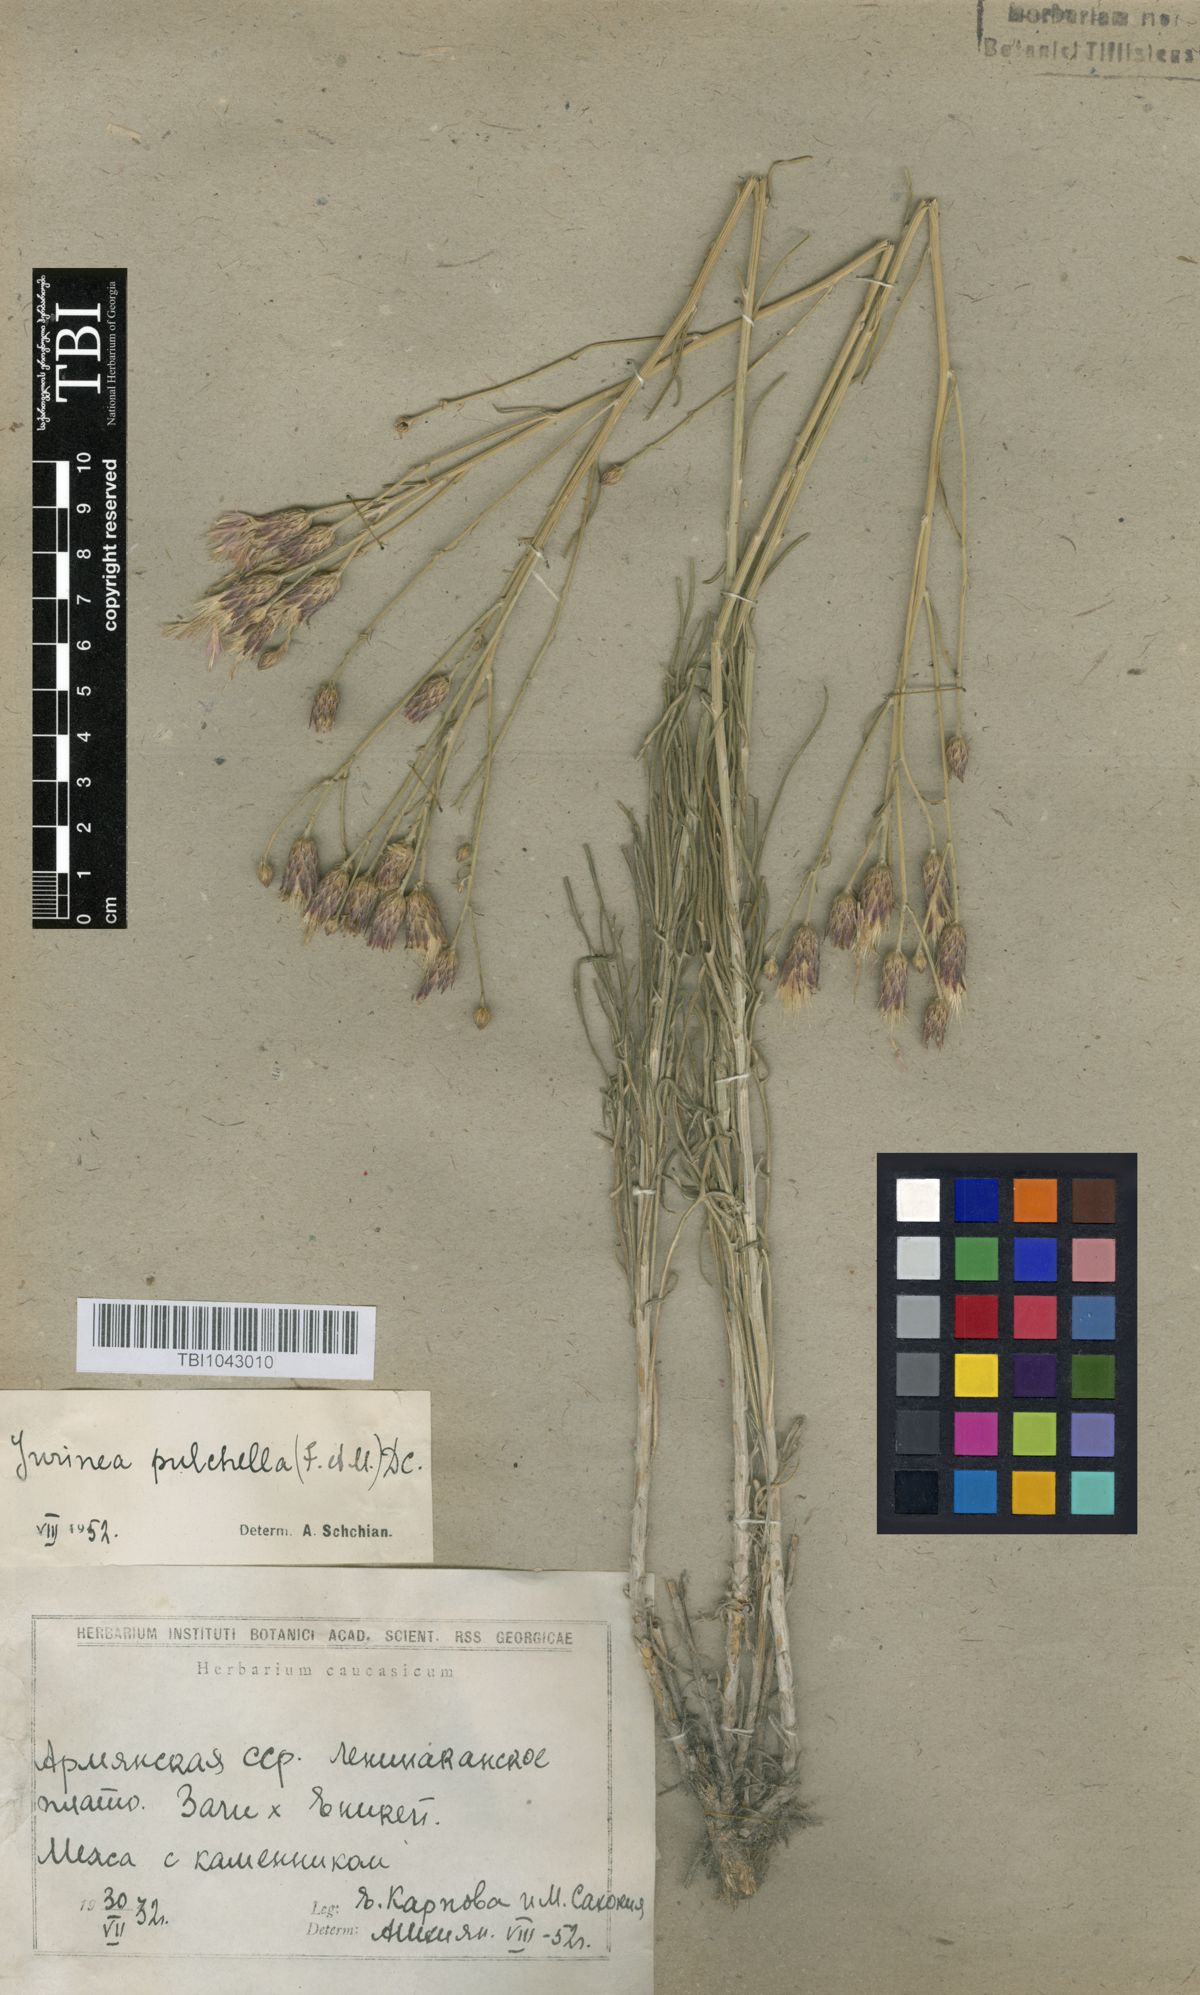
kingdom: Plantae
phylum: Tracheophyta
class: Magnoliopsida
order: Asterales
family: Asteraceae
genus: Jurinea
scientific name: Jurinea pulchella
